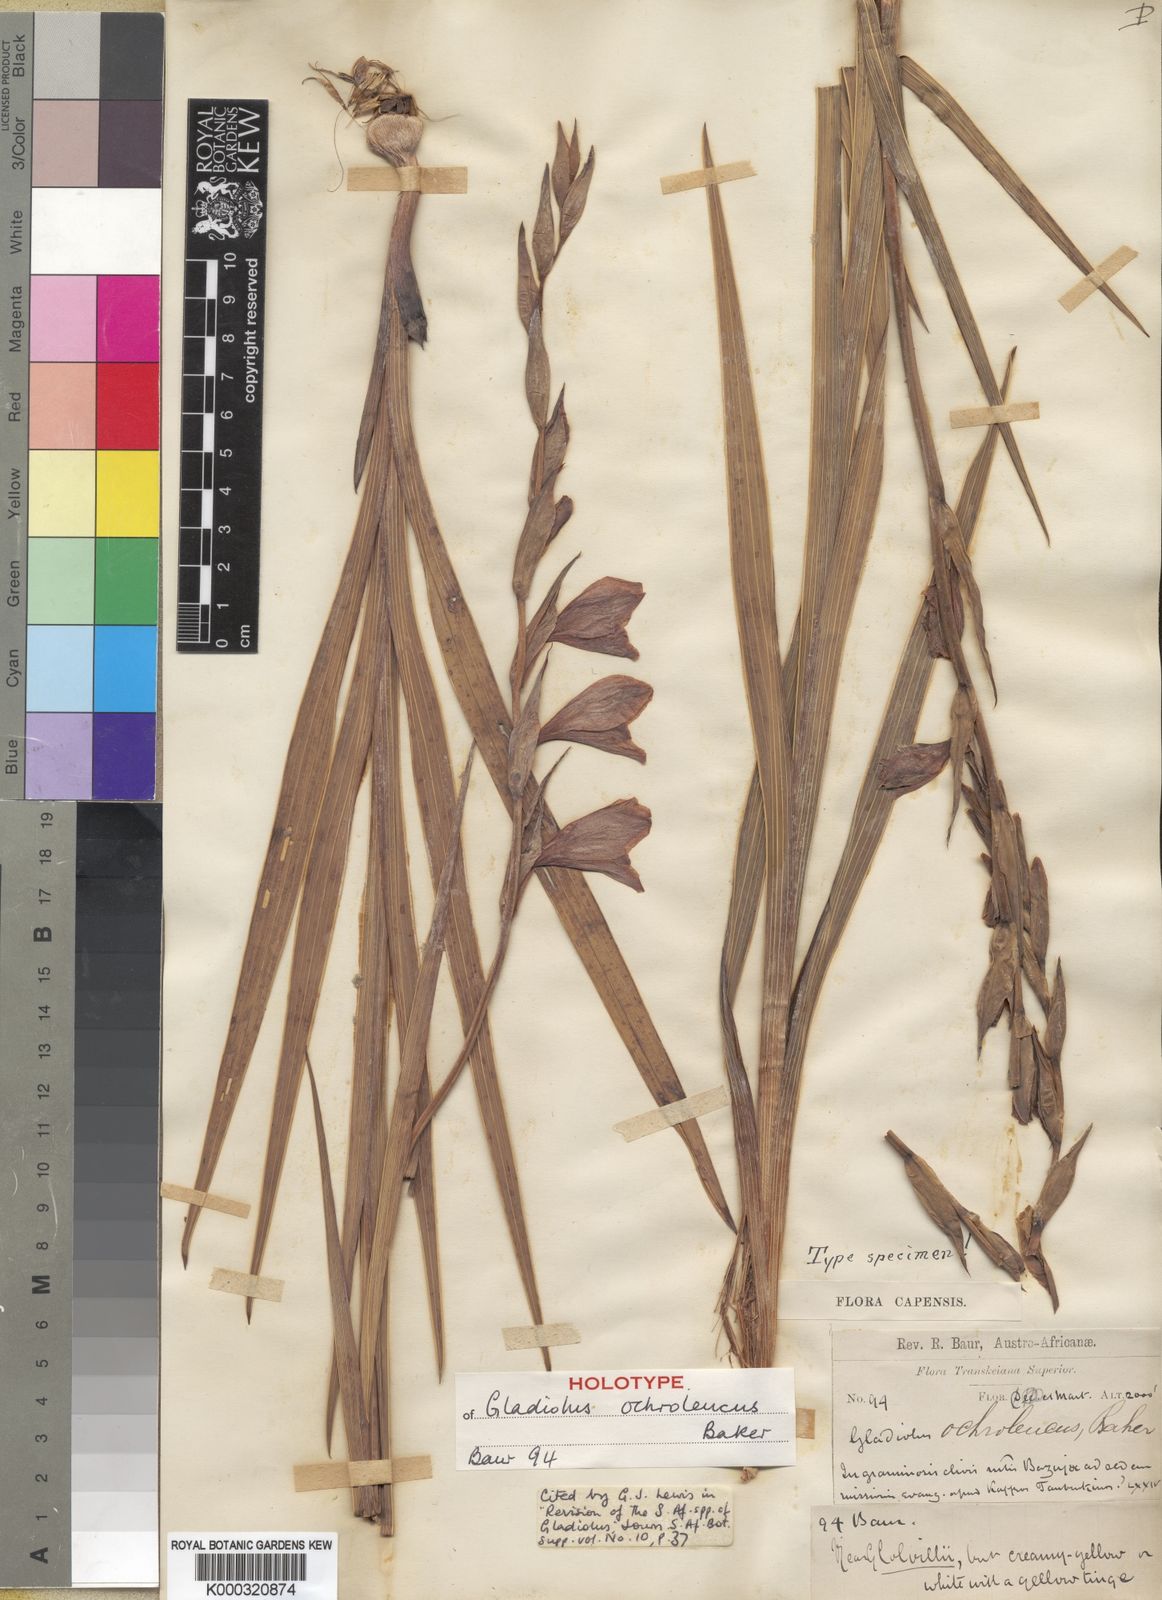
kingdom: Plantae
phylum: Tracheophyta
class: Liliopsida
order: Asparagales
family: Iridaceae
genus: Gladiolus
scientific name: Gladiolus ochroleucus
